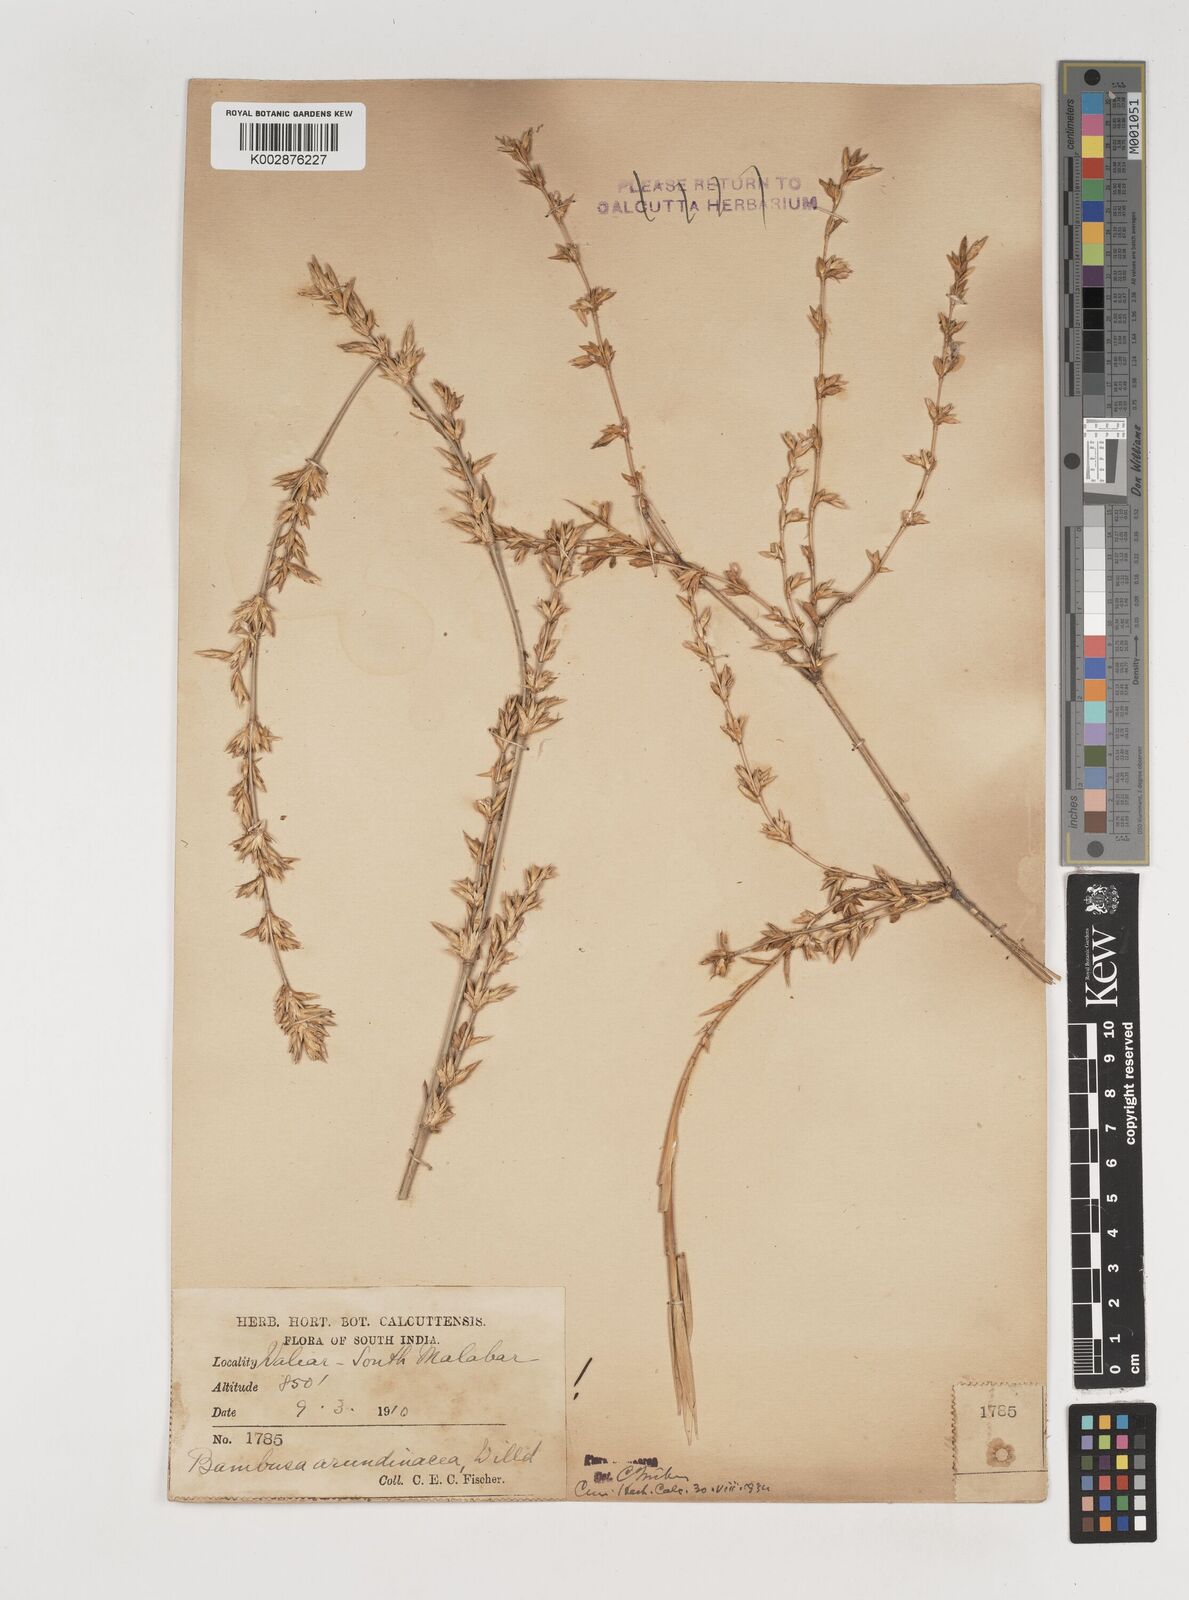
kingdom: Plantae
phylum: Tracheophyta
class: Liliopsida
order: Poales
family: Poaceae
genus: Bambusa
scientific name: Bambusa bambos
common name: Indian thorny bamboo
